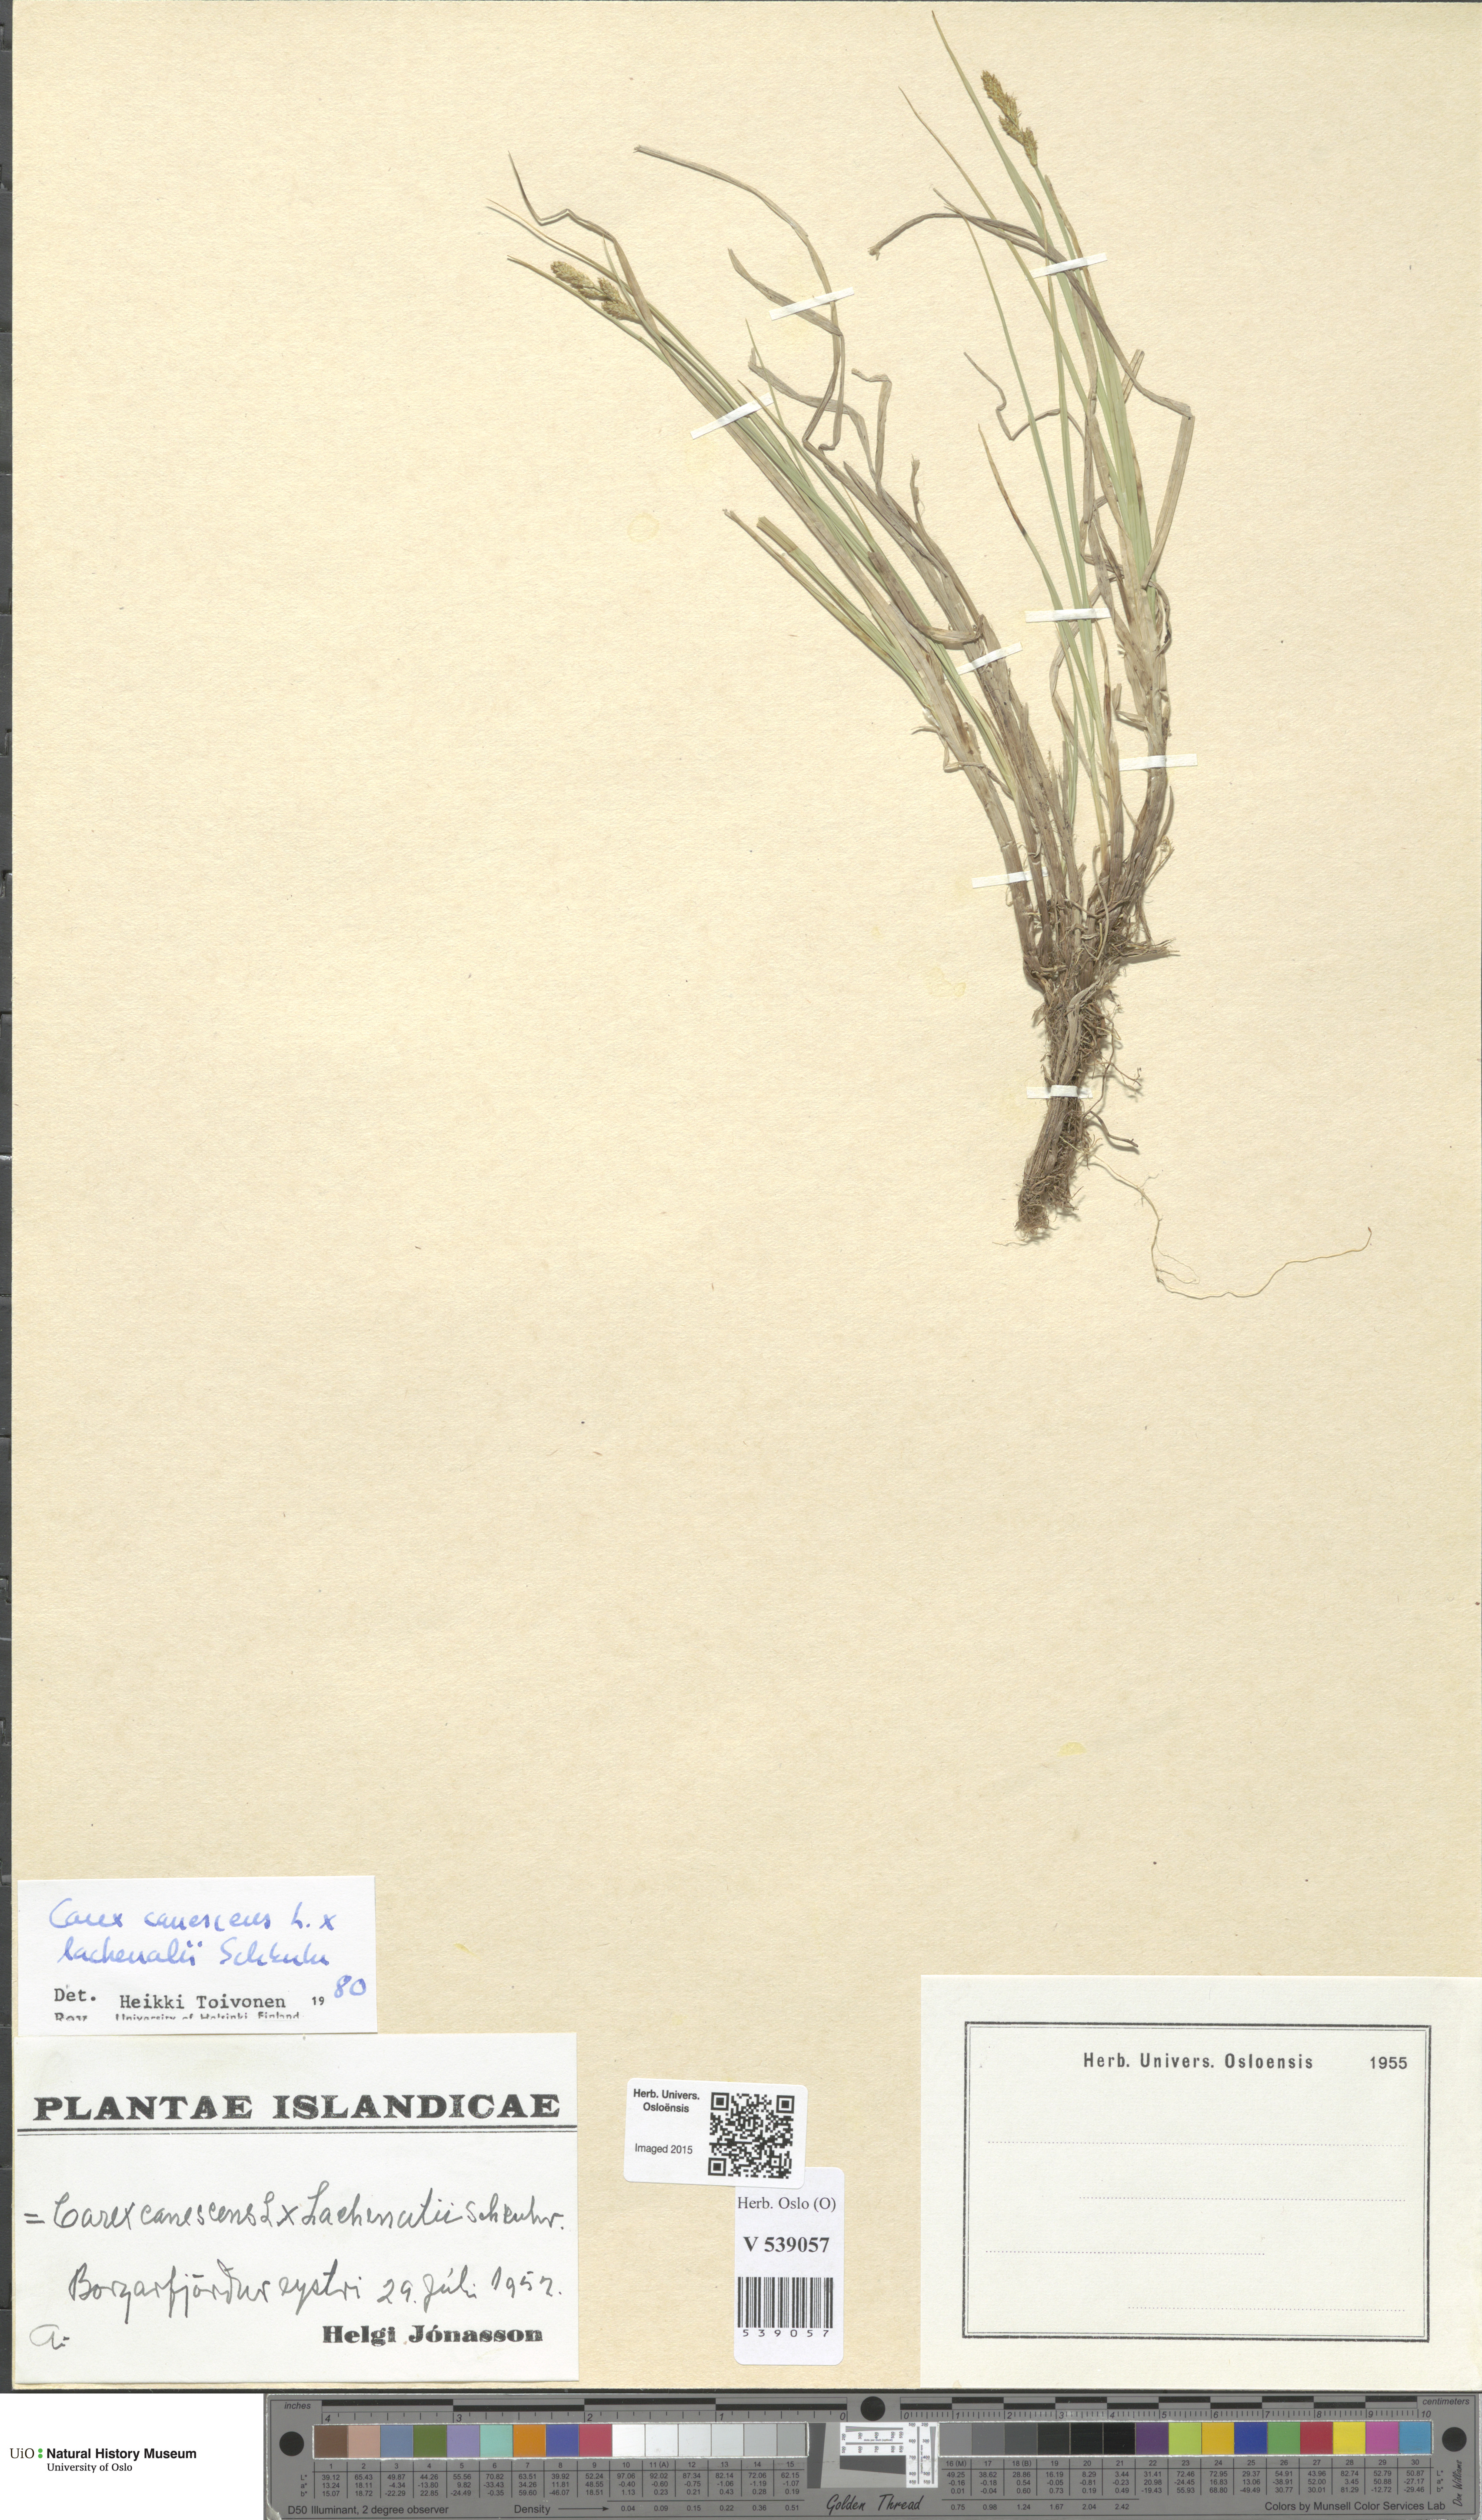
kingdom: Plantae
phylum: Tracheophyta
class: Liliopsida
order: Poales
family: Cyperaceae
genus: Carex
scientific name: Carex
